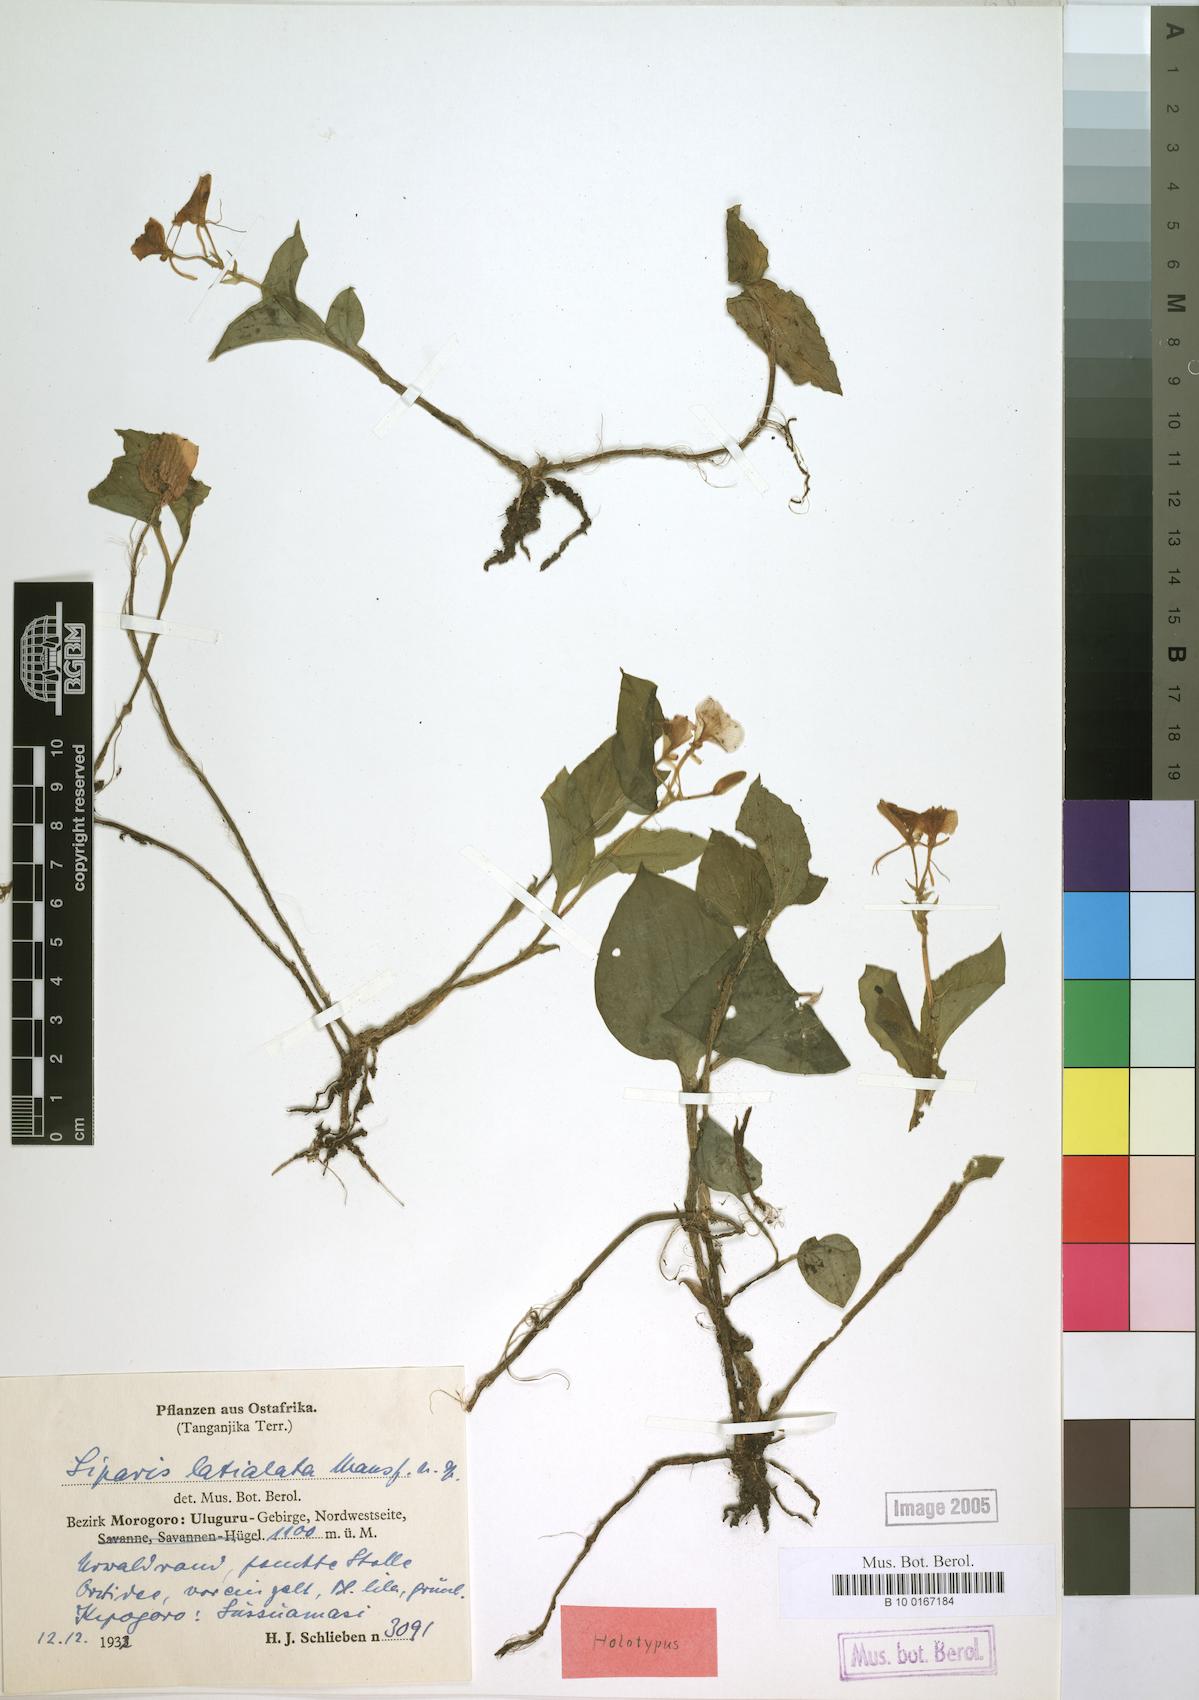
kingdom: Plantae
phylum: Tracheophyta
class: Liliopsida
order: Asparagales
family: Orchidaceae
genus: Liparis
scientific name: Liparis latialata
